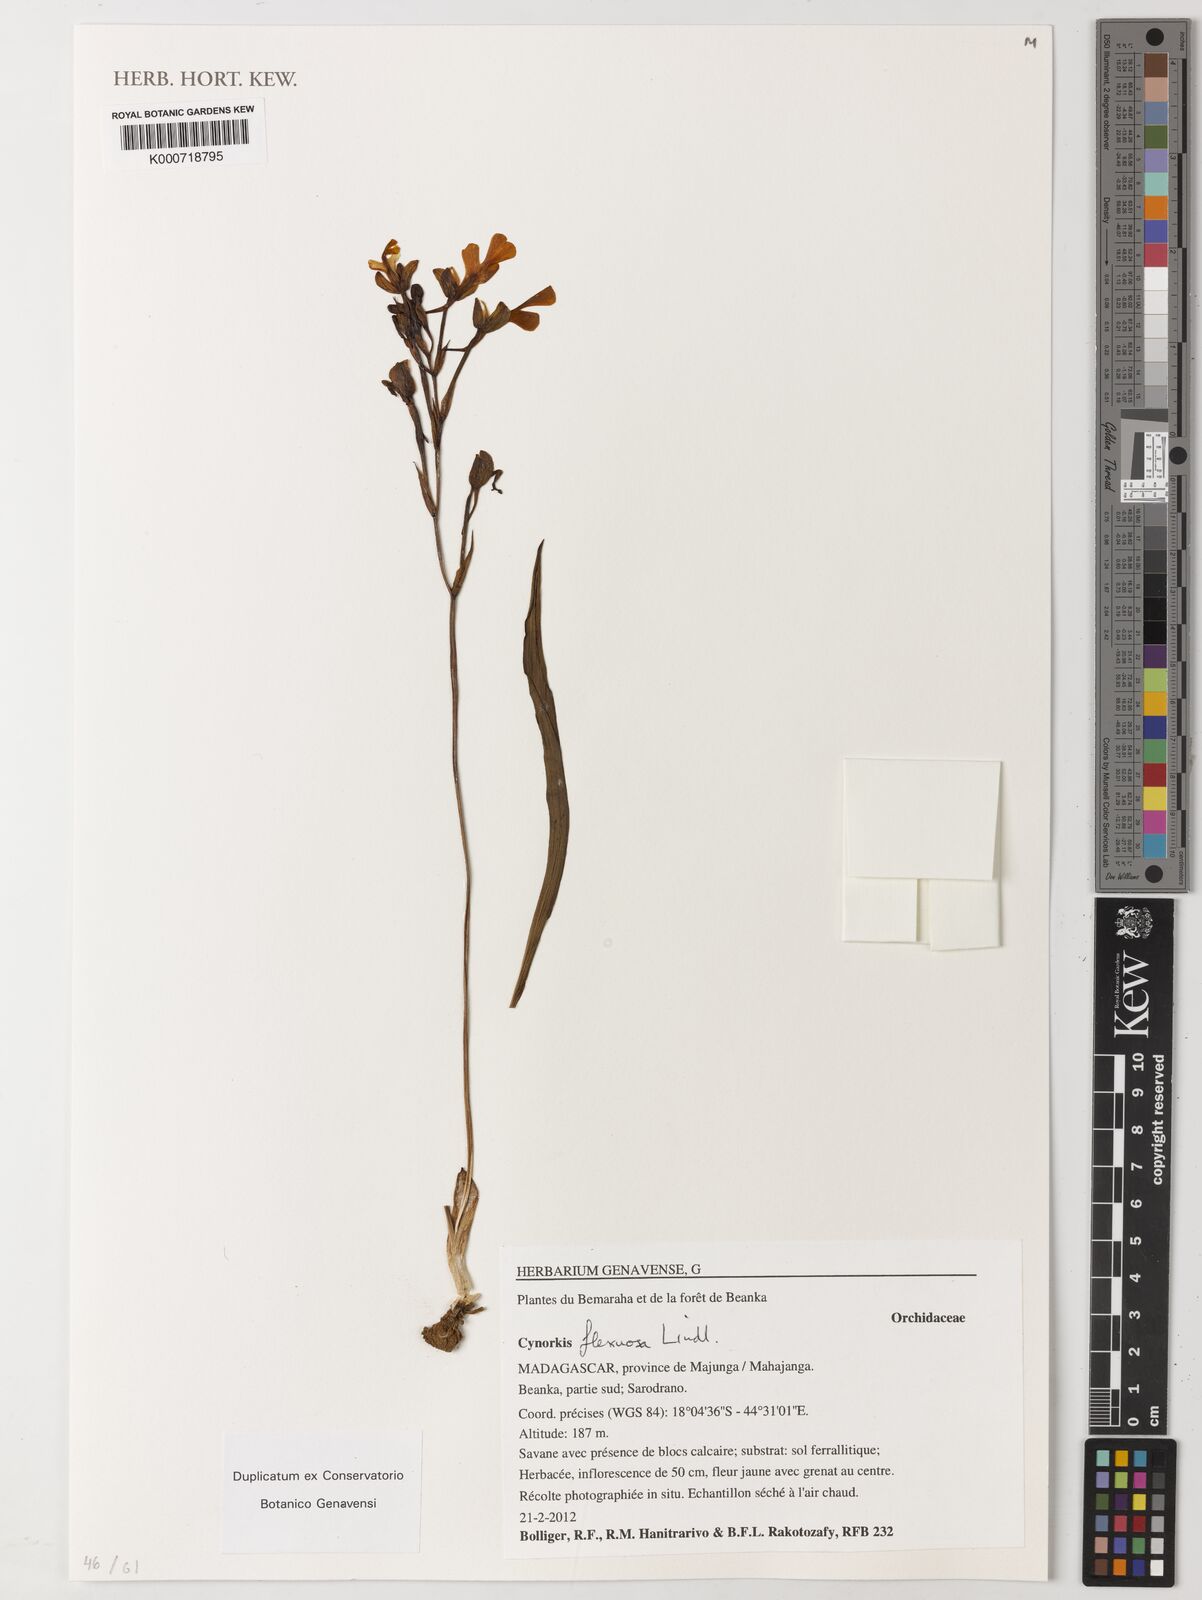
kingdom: Plantae
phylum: Tracheophyta
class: Liliopsida
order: Asparagales
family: Orchidaceae
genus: Cynorkis
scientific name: Cynorkis flexuosa
